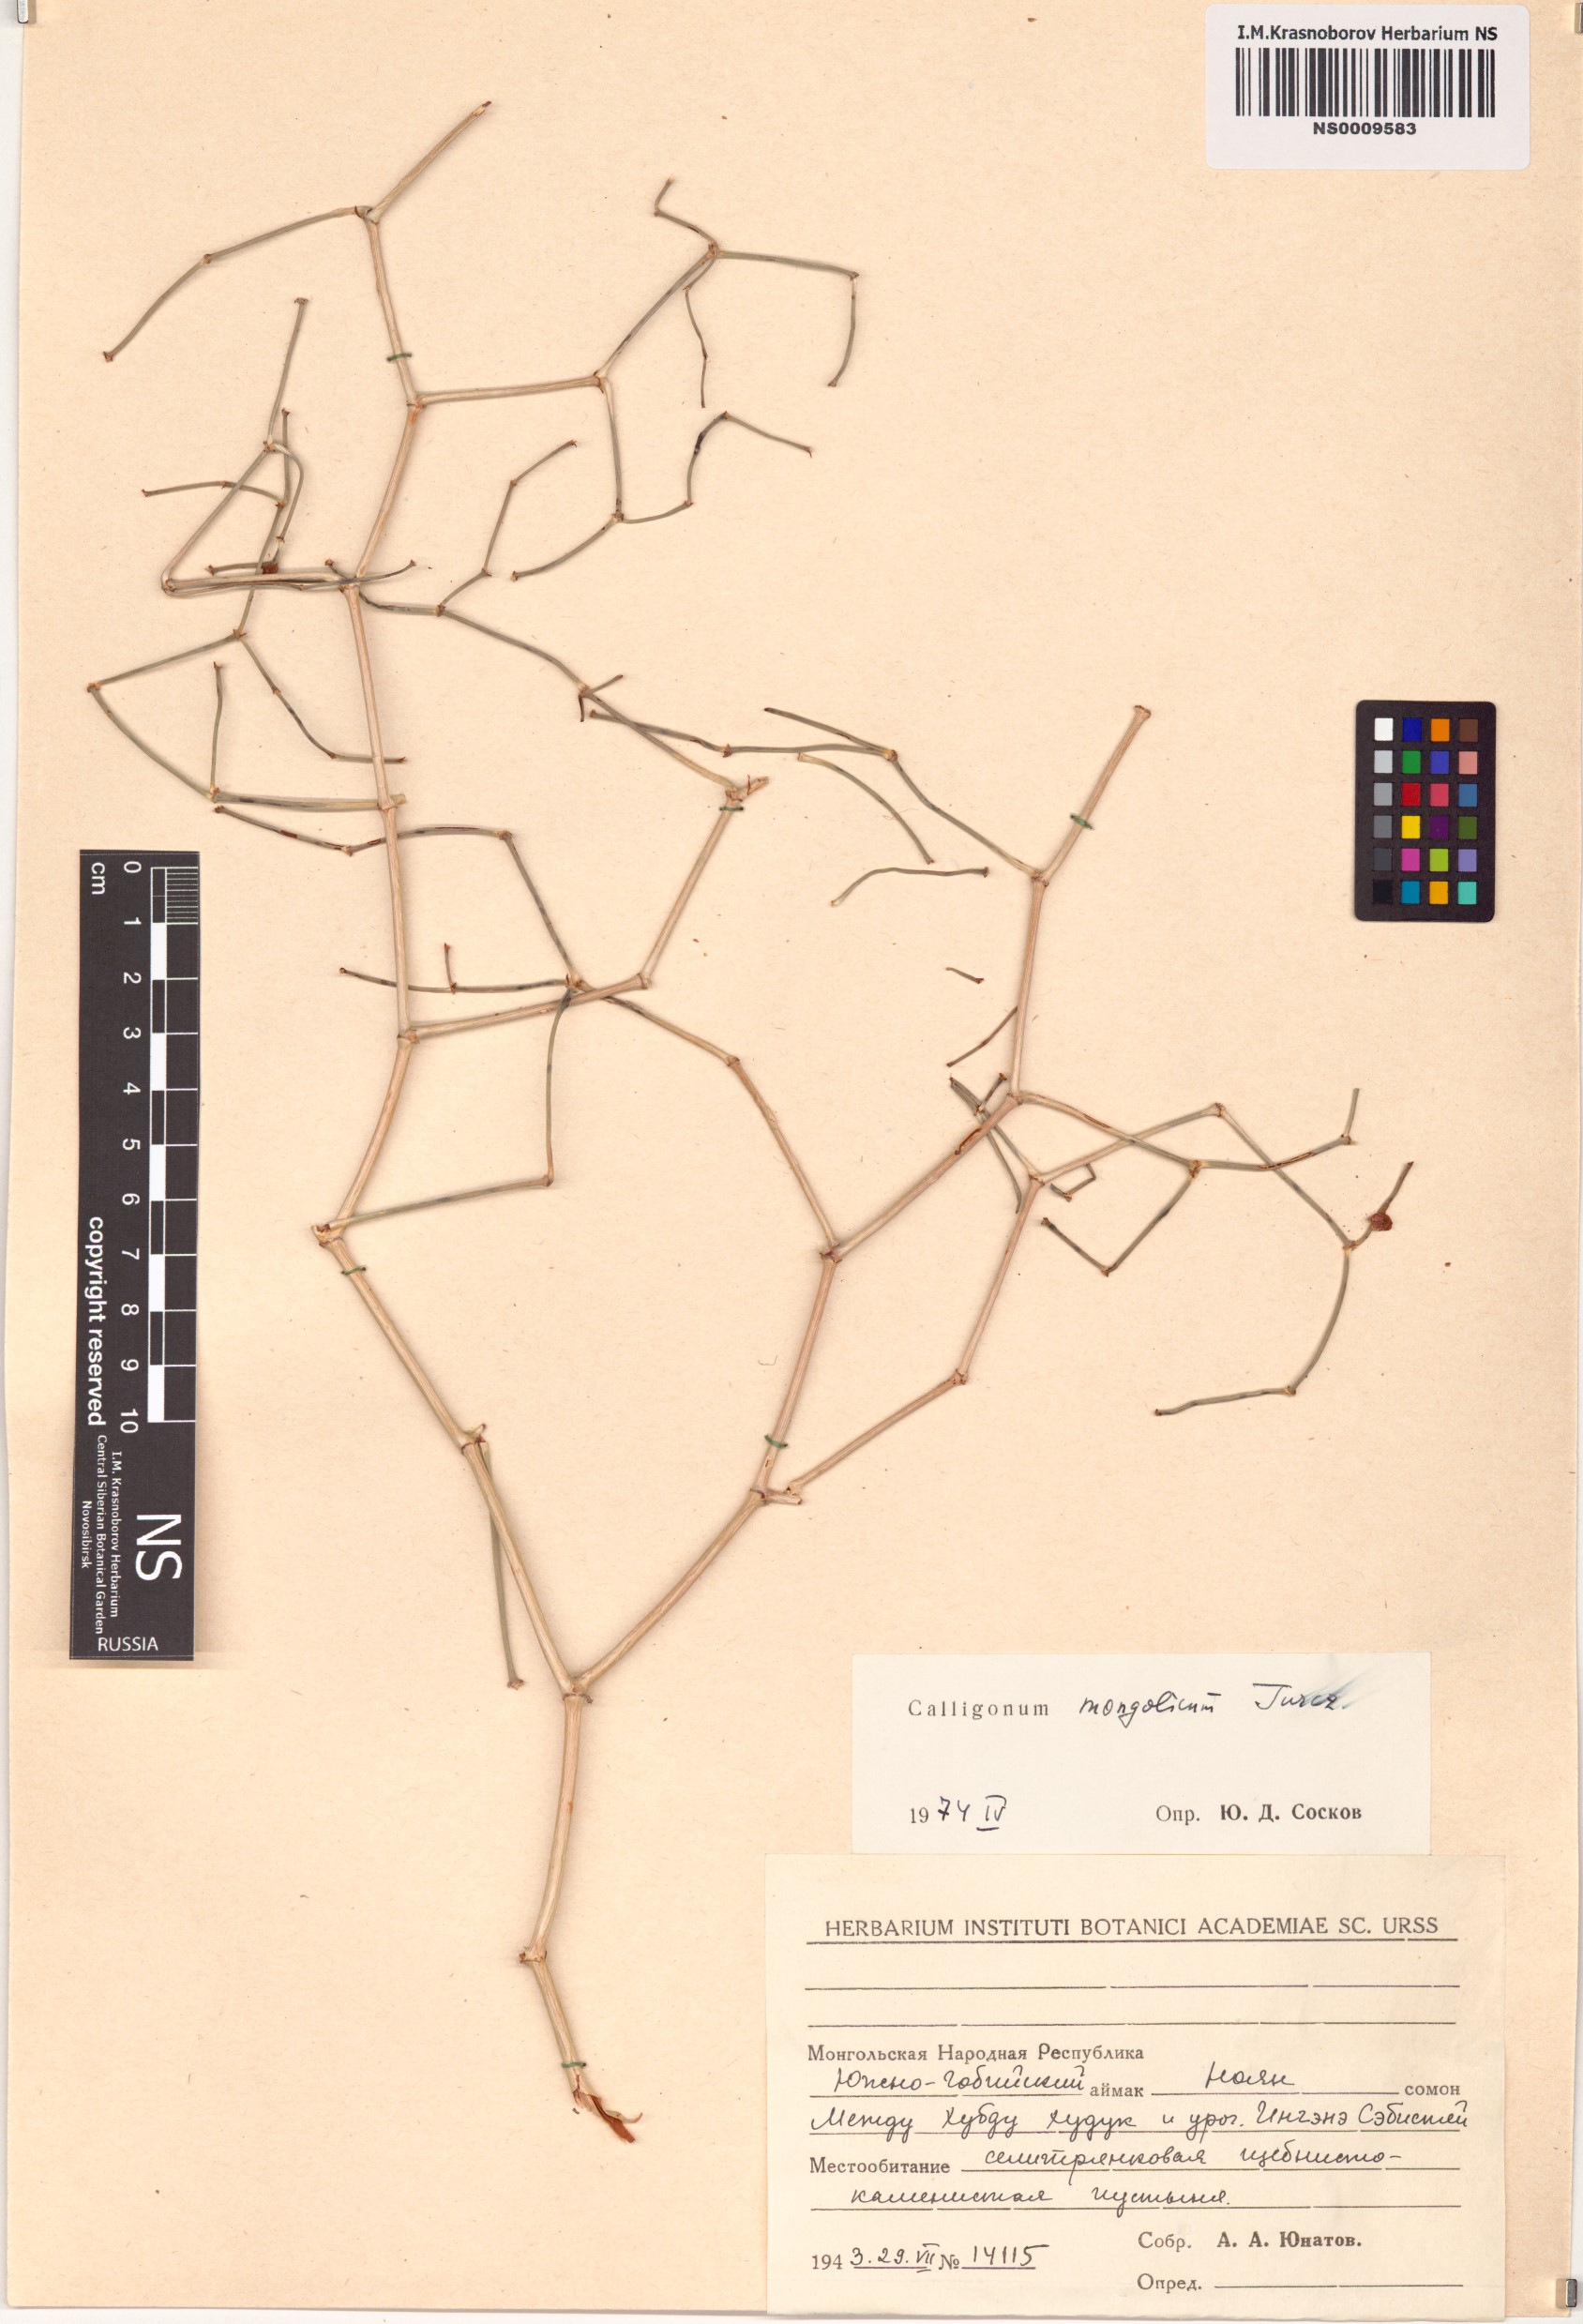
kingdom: Plantae
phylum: Tracheophyta
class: Magnoliopsida
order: Caryophyllales
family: Polygonaceae
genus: Calligonum
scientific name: Calligonum mongolicum
